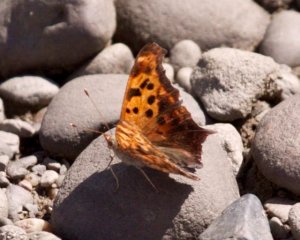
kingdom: Animalia
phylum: Arthropoda
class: Insecta
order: Lepidoptera
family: Nymphalidae
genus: Polygonia
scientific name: Polygonia interrogationis
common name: Question Mark
